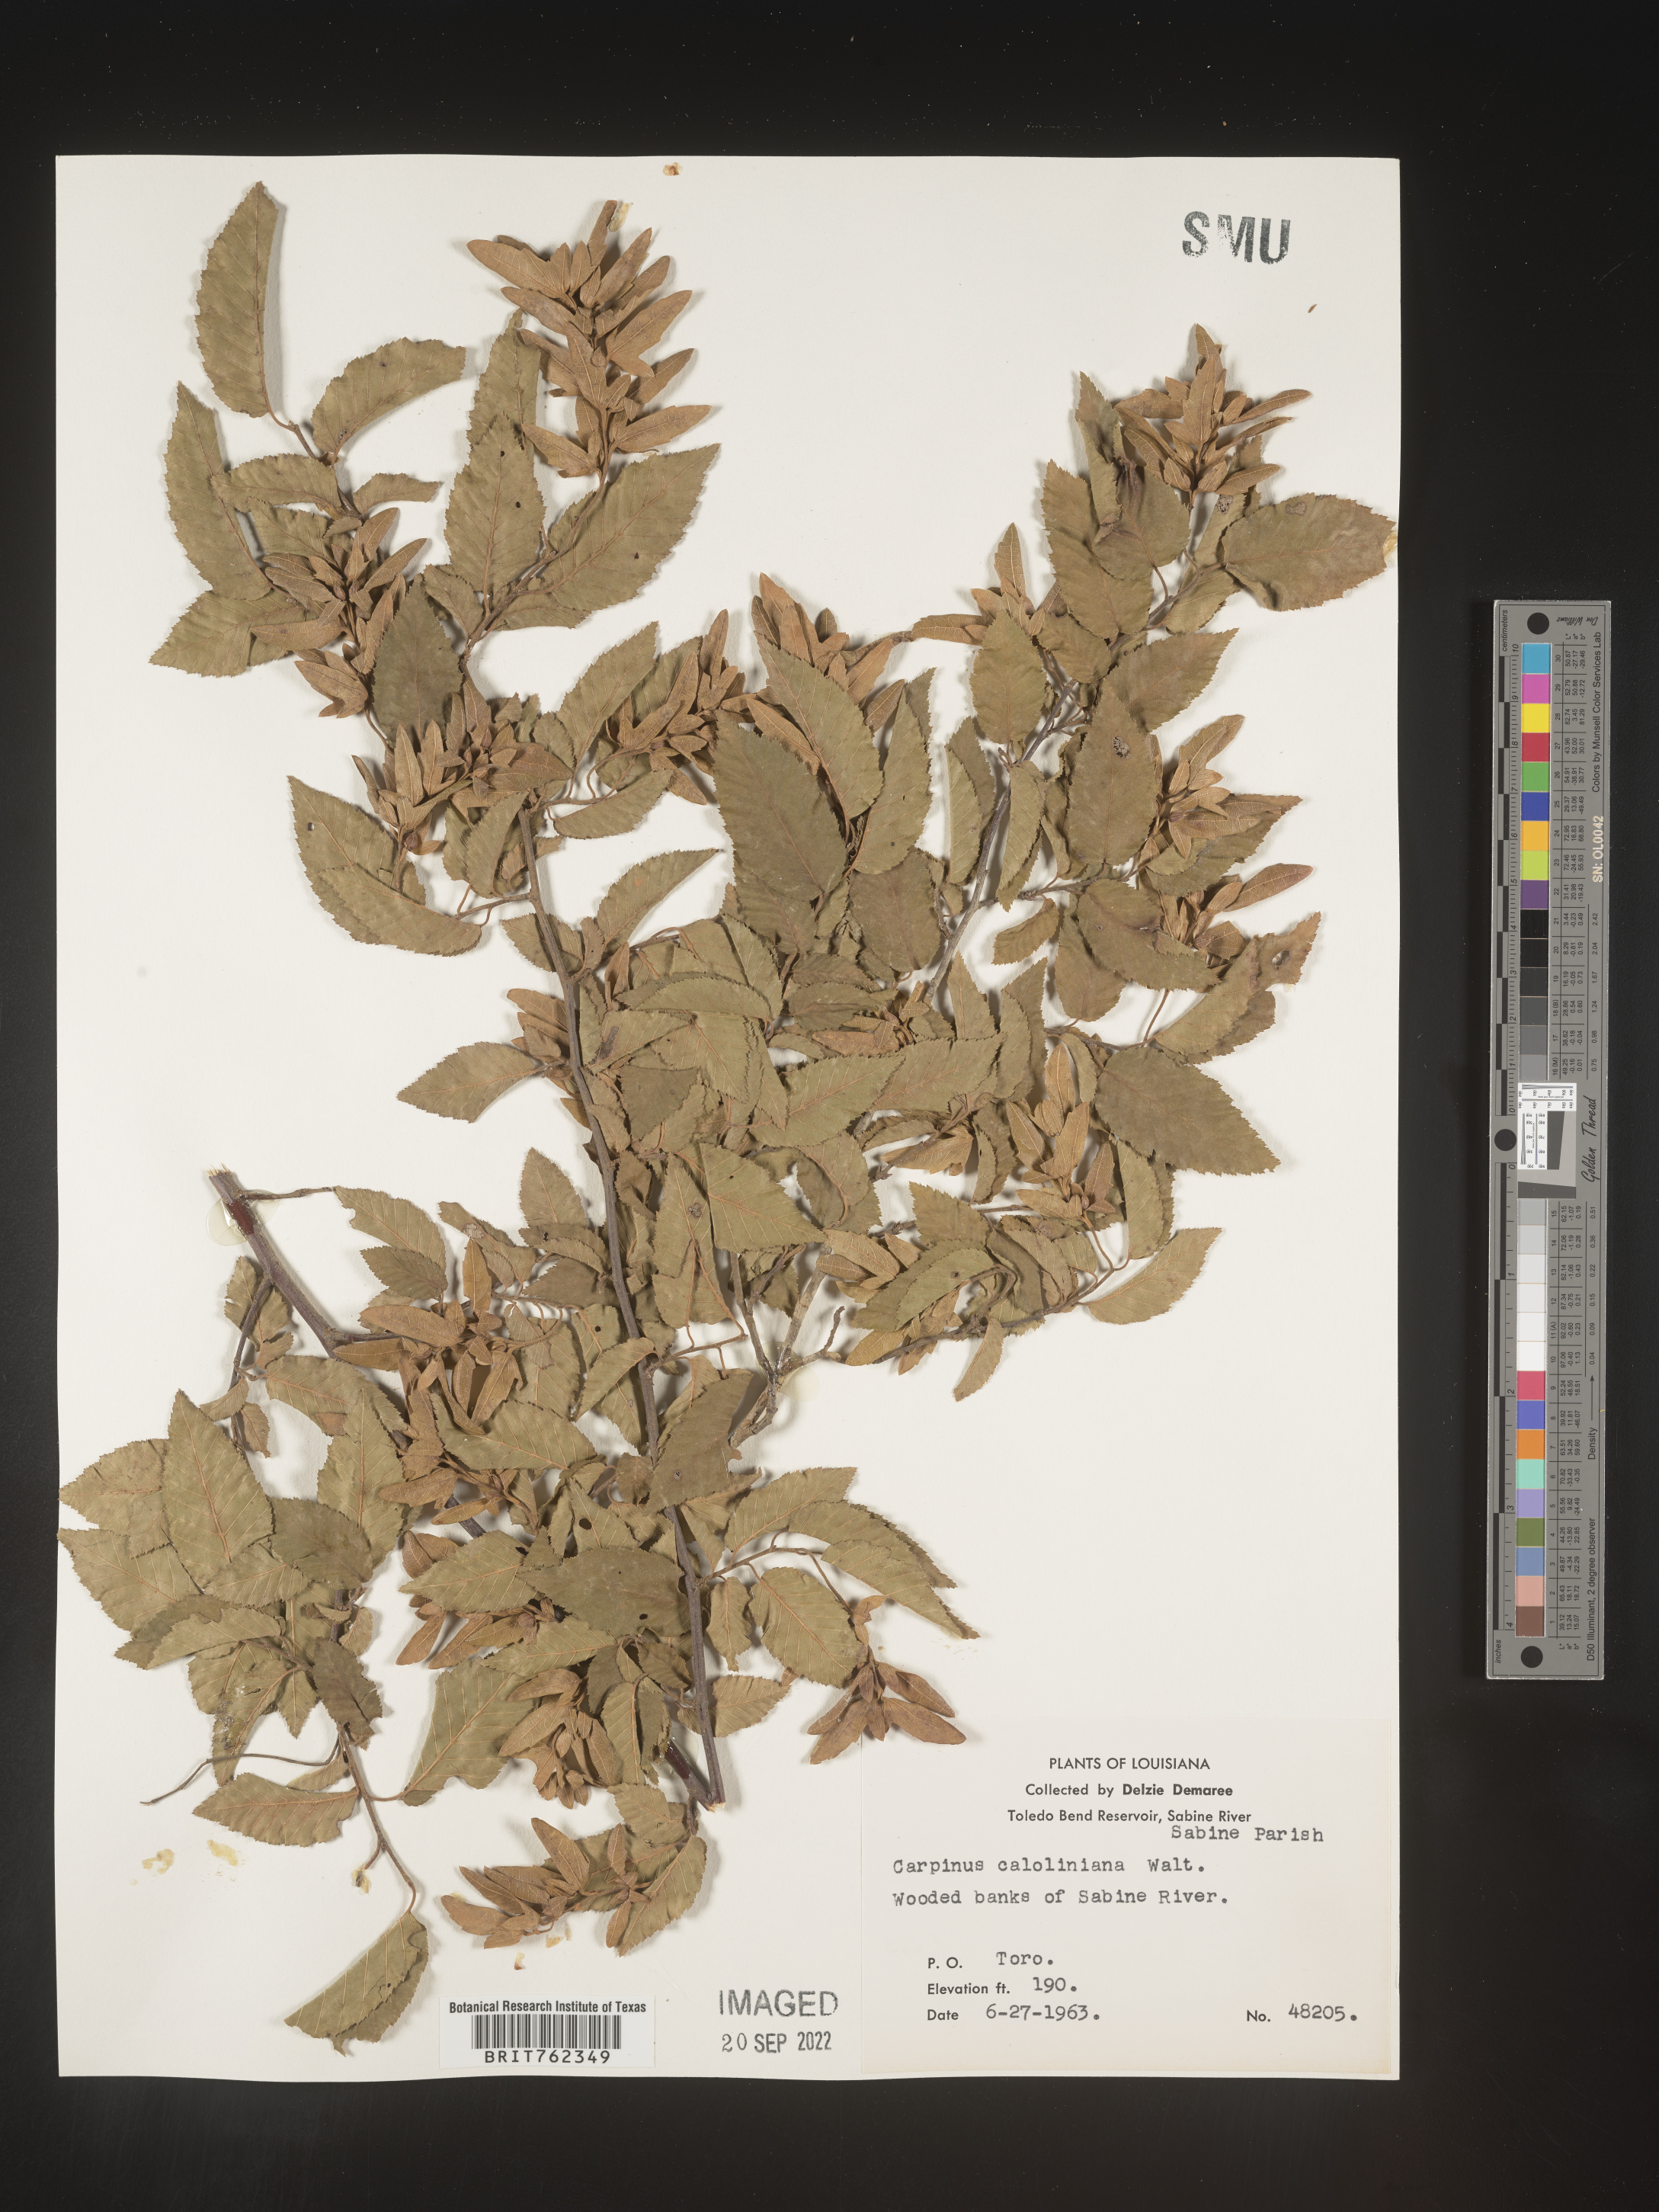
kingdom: Plantae
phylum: Tracheophyta
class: Magnoliopsida
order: Fagales
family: Betulaceae
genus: Carpinus
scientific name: Carpinus caroliniana
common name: American hornbeam
